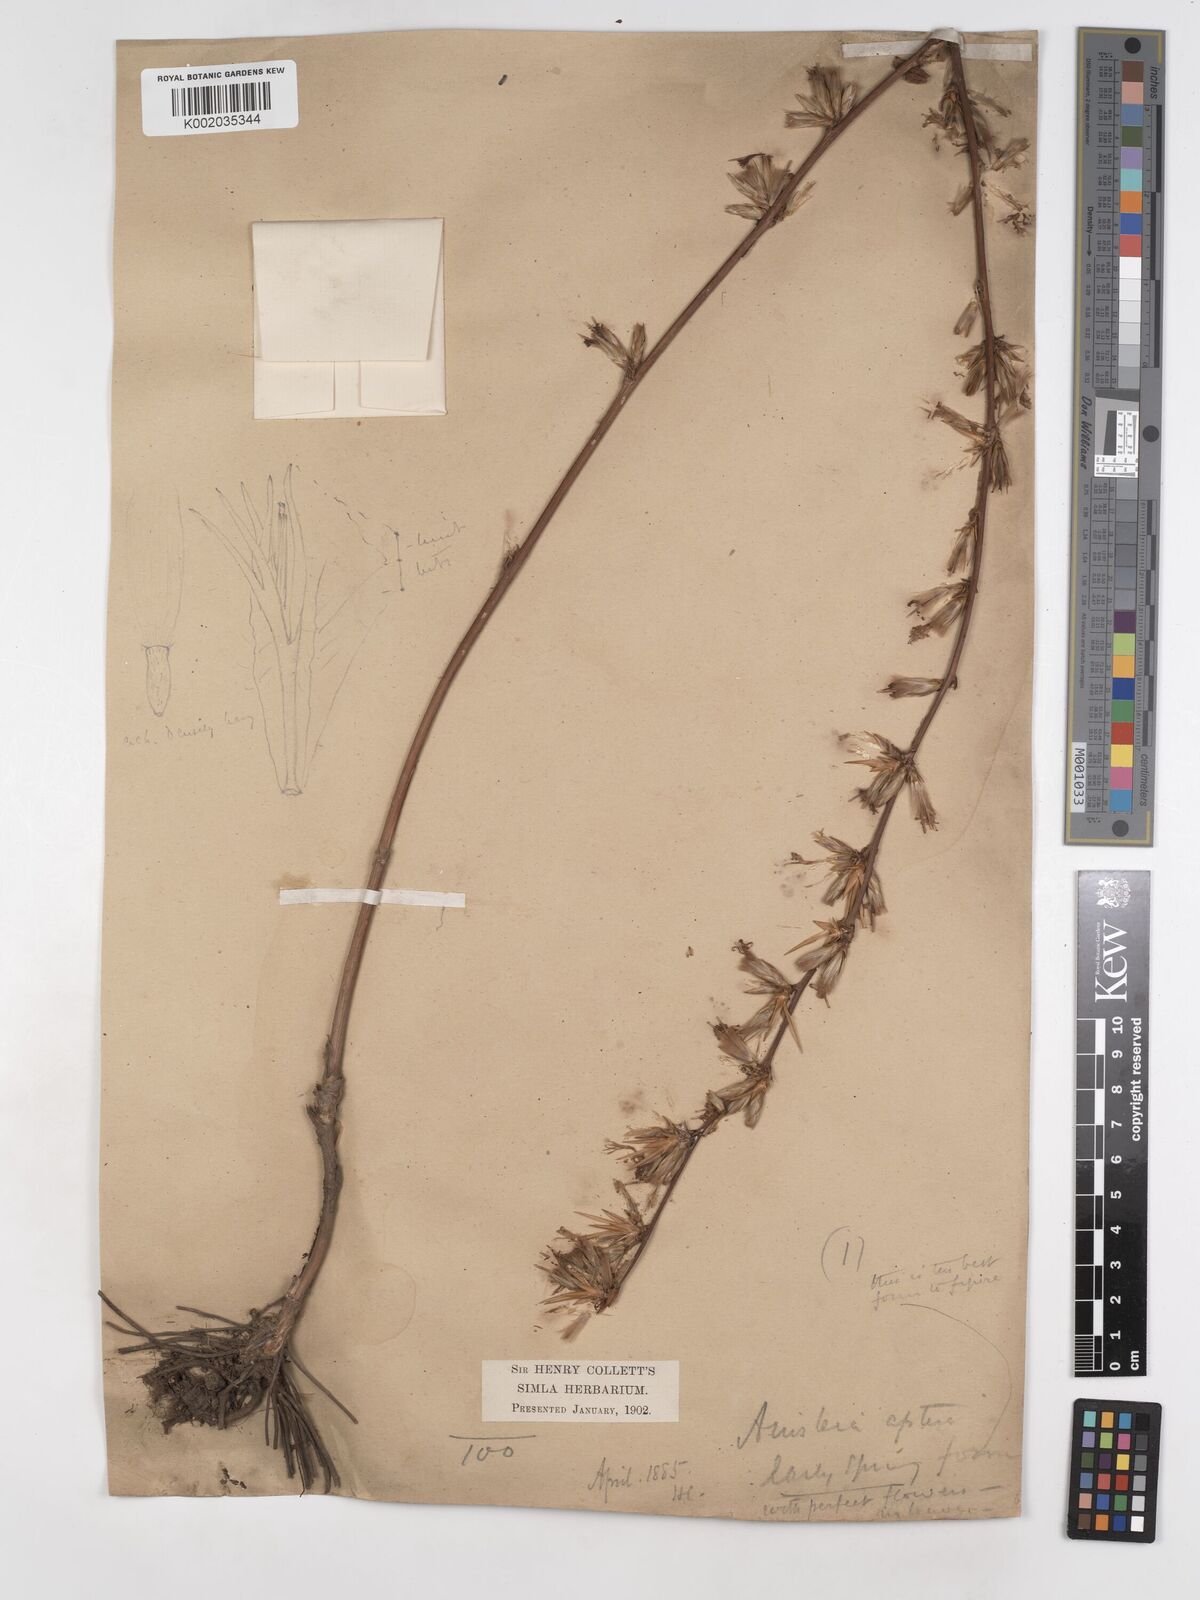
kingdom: Plantae
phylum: Tracheophyta
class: Magnoliopsida
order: Asterales
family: Asteraceae
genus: Ainsliaea
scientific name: Ainsliaea aptera
